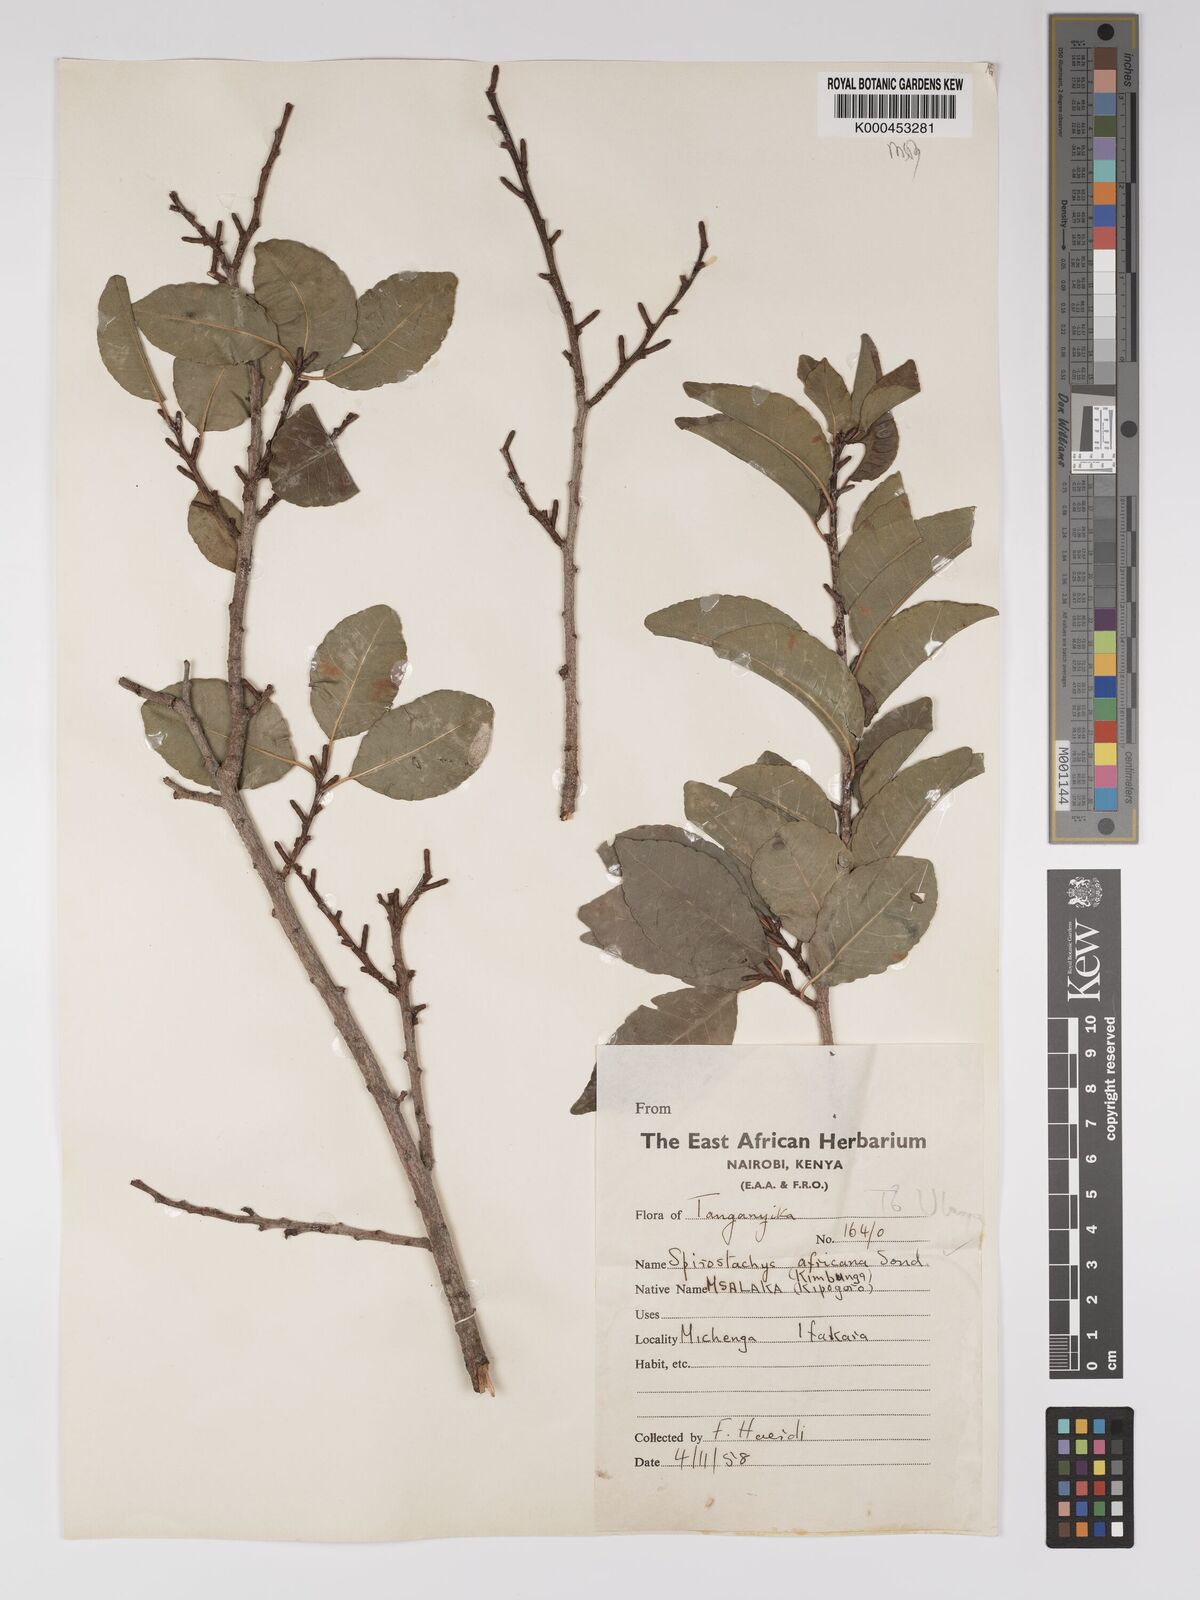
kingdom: Plantae
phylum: Tracheophyta
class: Magnoliopsida
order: Malpighiales
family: Euphorbiaceae
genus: Spirostachys
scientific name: Spirostachys africana
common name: Tamboti
